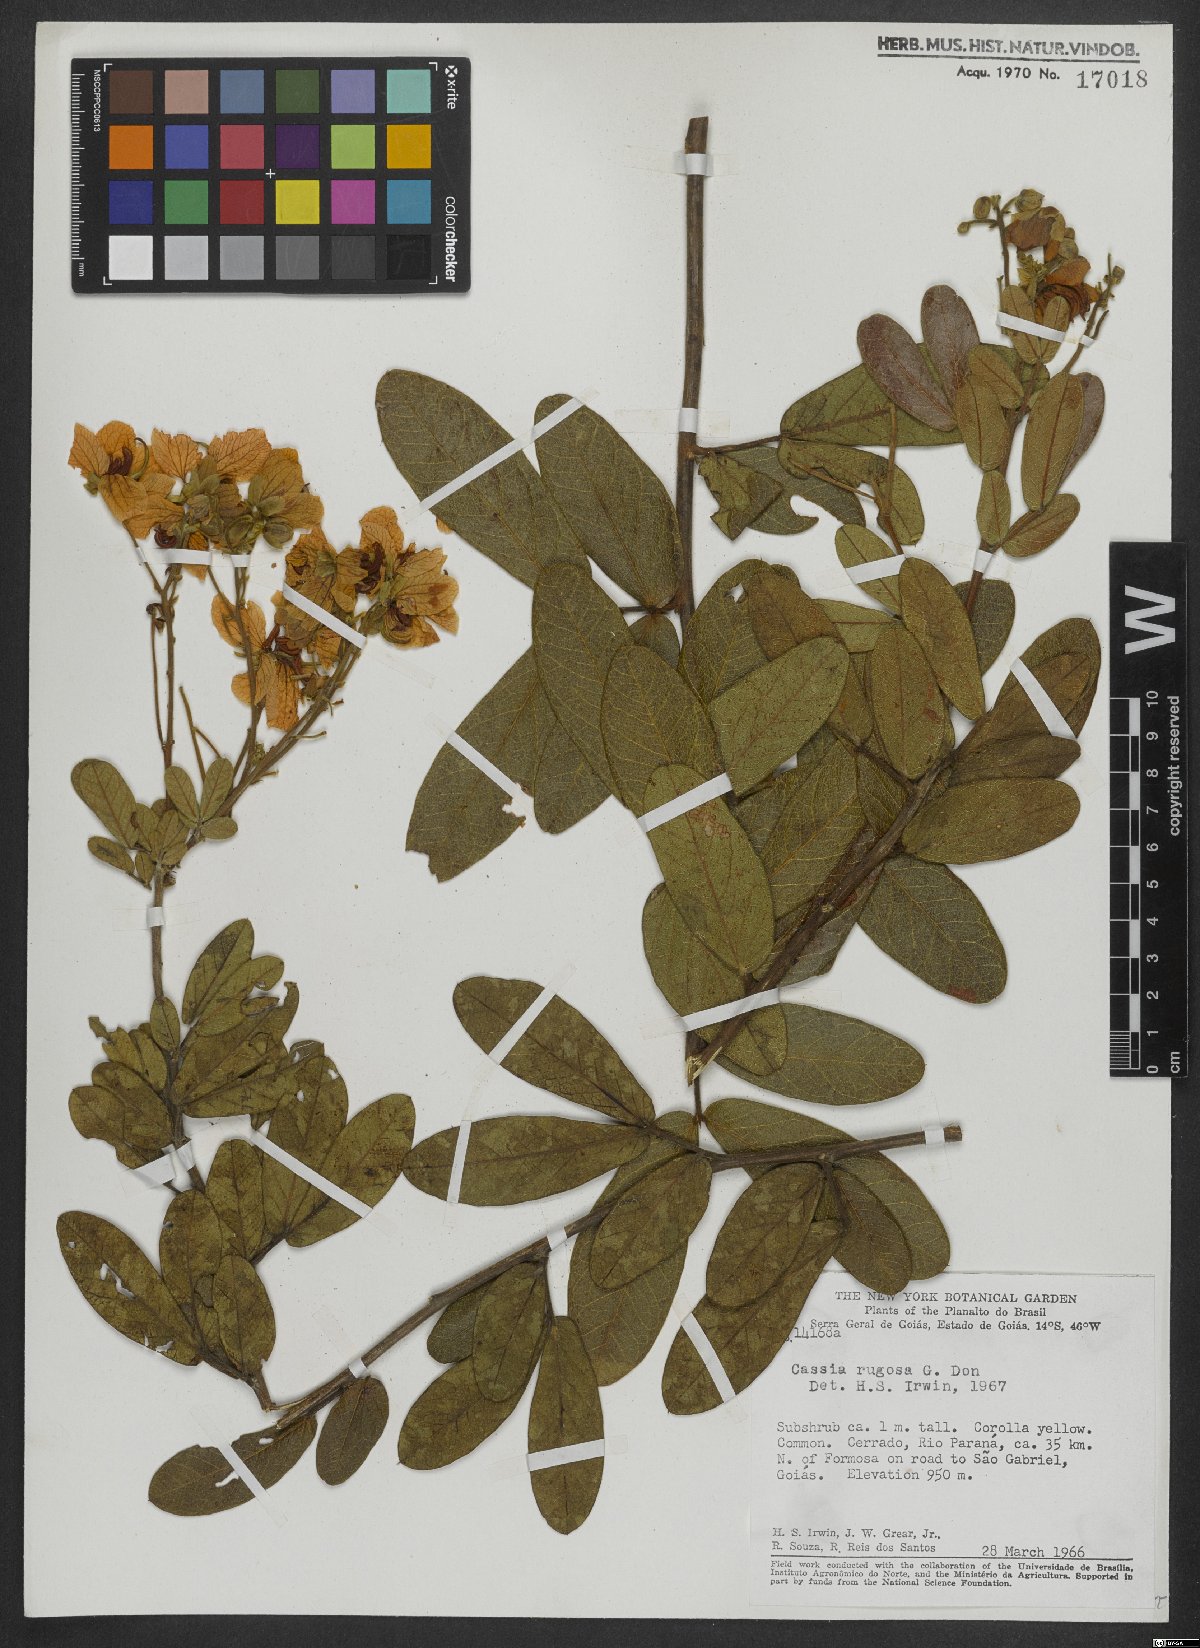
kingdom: Plantae
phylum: Tracheophyta
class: Magnoliopsida
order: Fabales
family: Fabaceae
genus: Senna
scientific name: Senna rugosa
